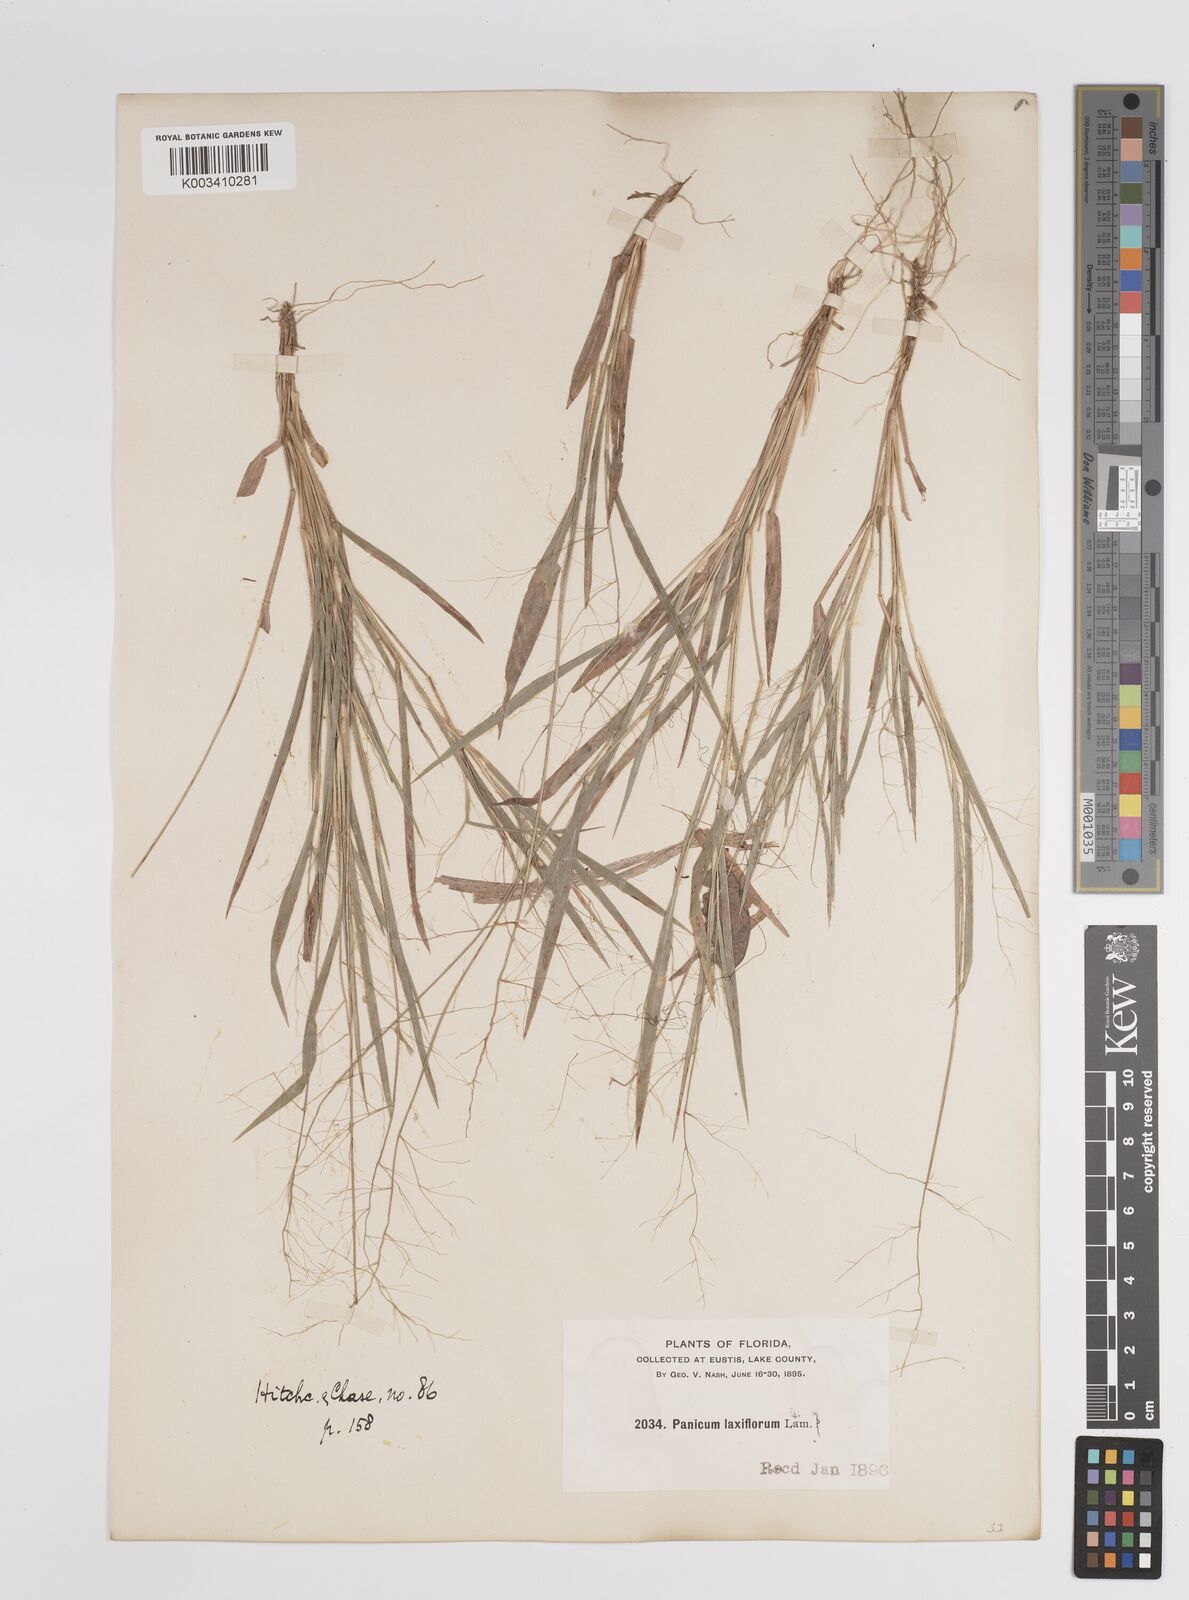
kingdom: Plantae
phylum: Tracheophyta
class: Liliopsida
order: Poales
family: Poaceae
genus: Dichanthelium
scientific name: Dichanthelium laxiflorum
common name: Soft-tuft panic grass
